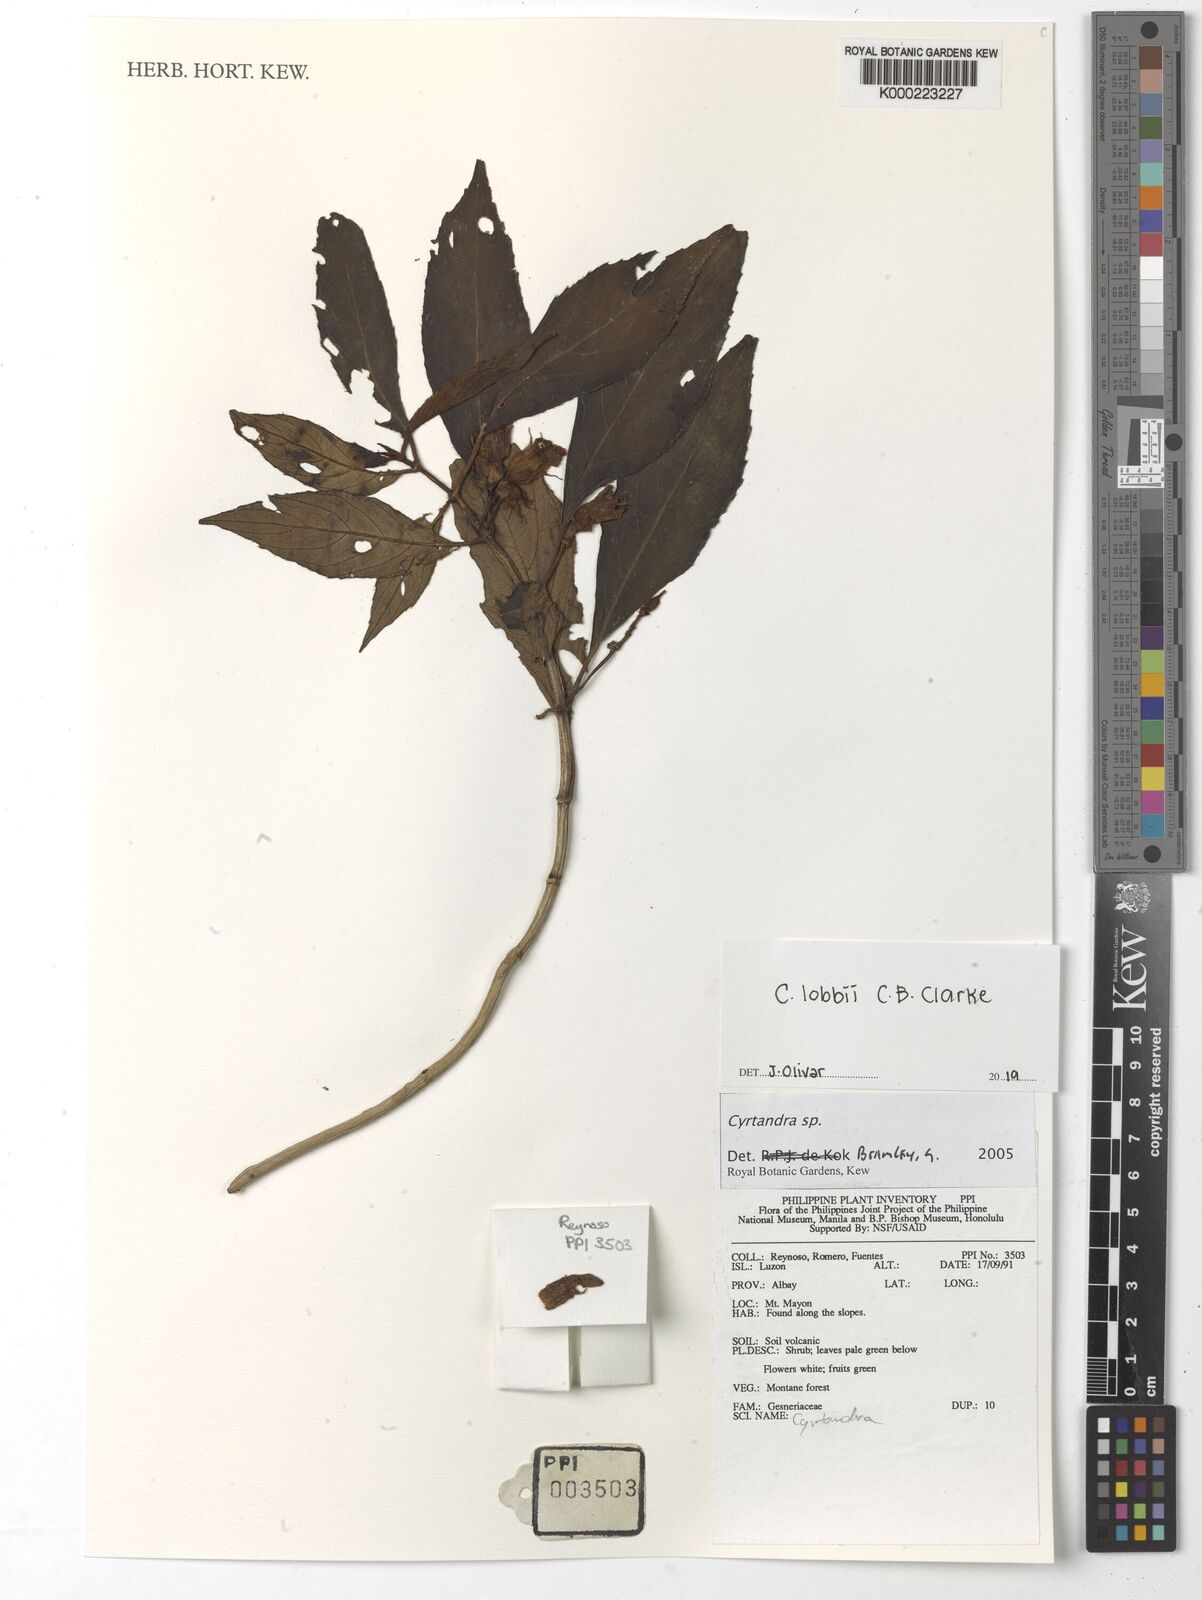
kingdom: Plantae
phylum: Tracheophyta
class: Magnoliopsida
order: Lamiales
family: Gesneriaceae
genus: Cyrtandra
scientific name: Cyrtandra
